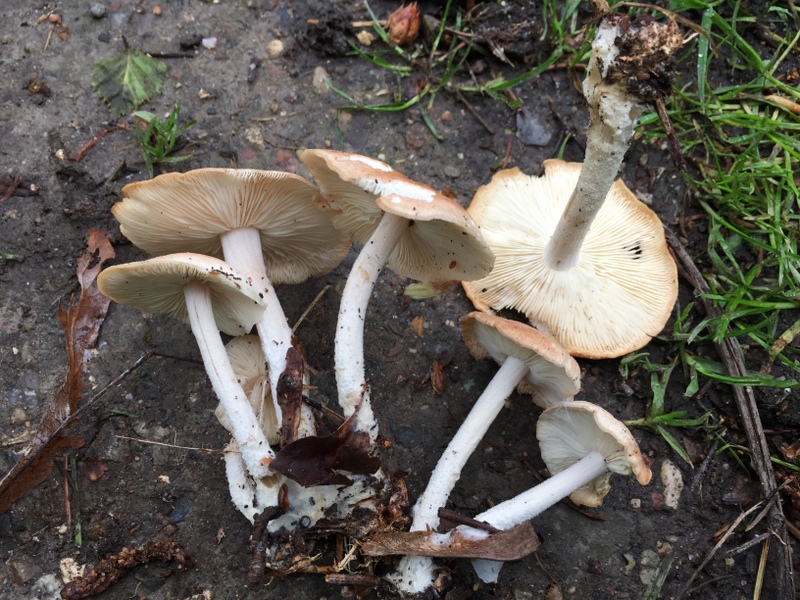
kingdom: Fungi
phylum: Basidiomycota
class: Agaricomycetes
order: Agaricales
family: Omphalotaceae
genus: Gymnopus
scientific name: Gymnopus hariolorum
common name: hvidkåls-fladhat
